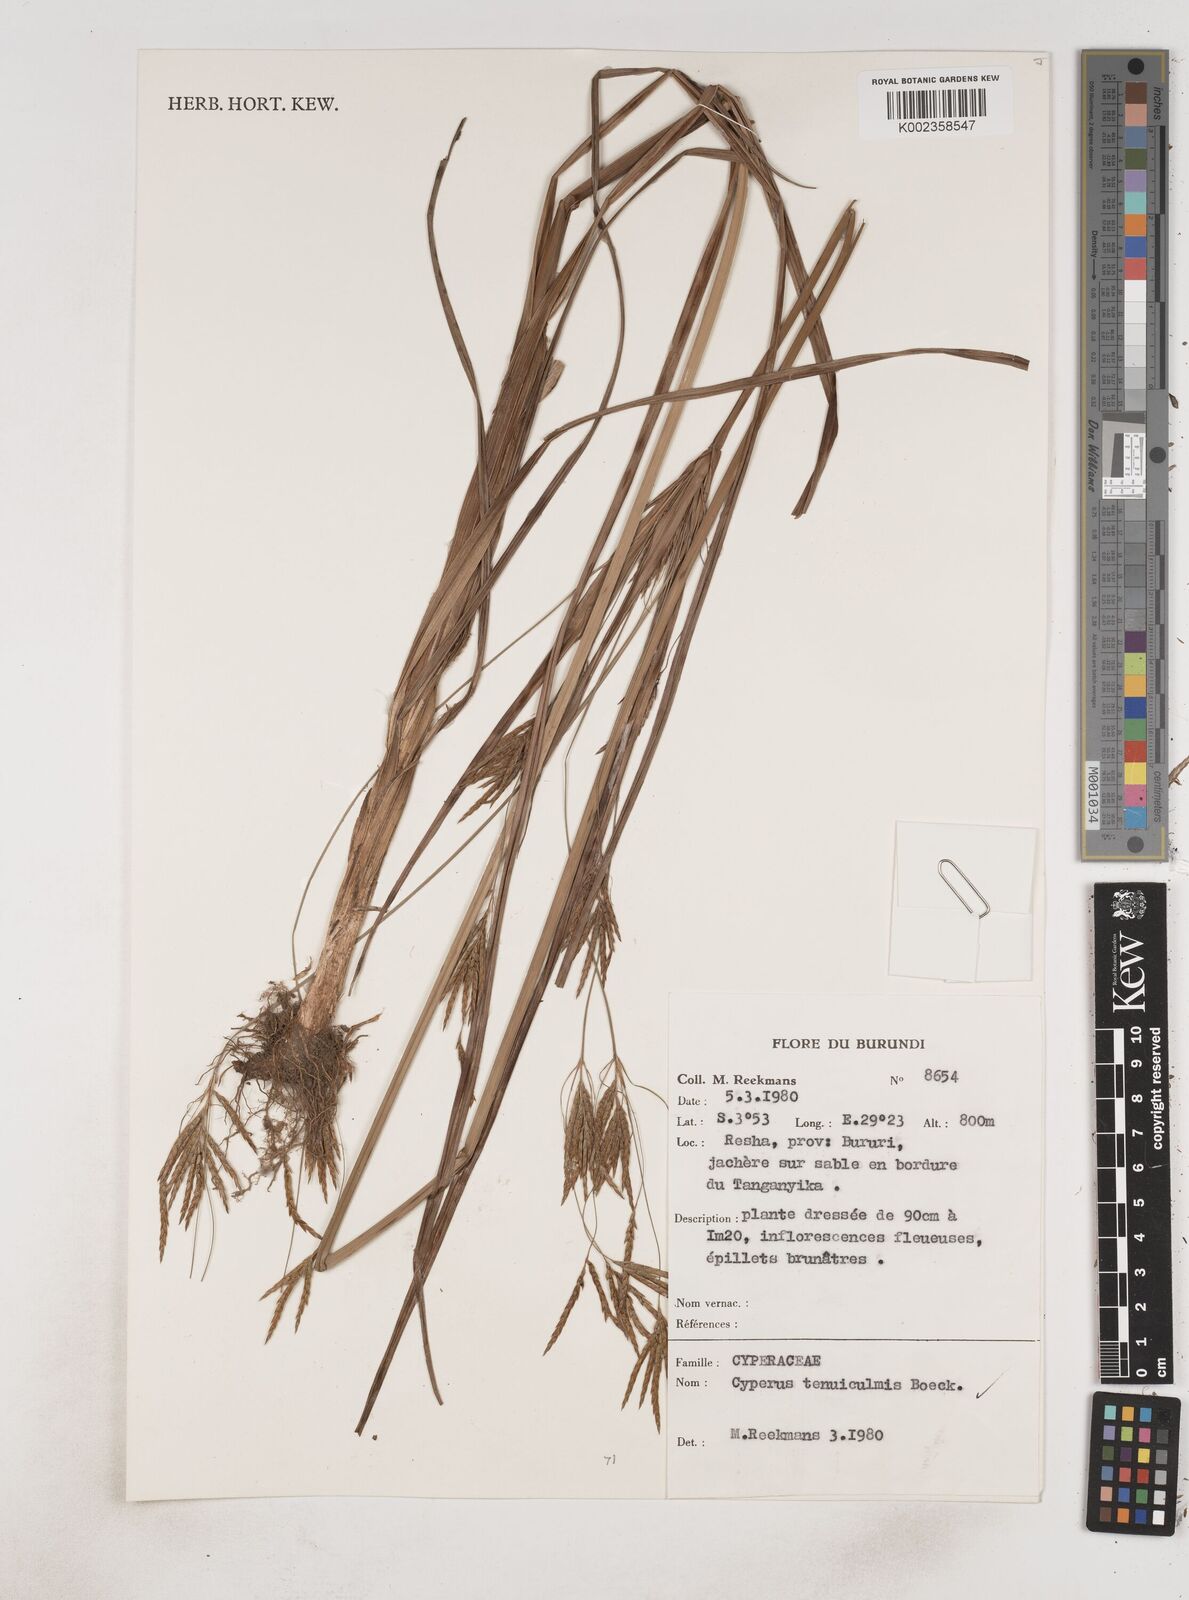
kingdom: Plantae
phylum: Tracheophyta
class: Liliopsida
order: Poales
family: Cyperaceae
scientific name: Cyperaceae
